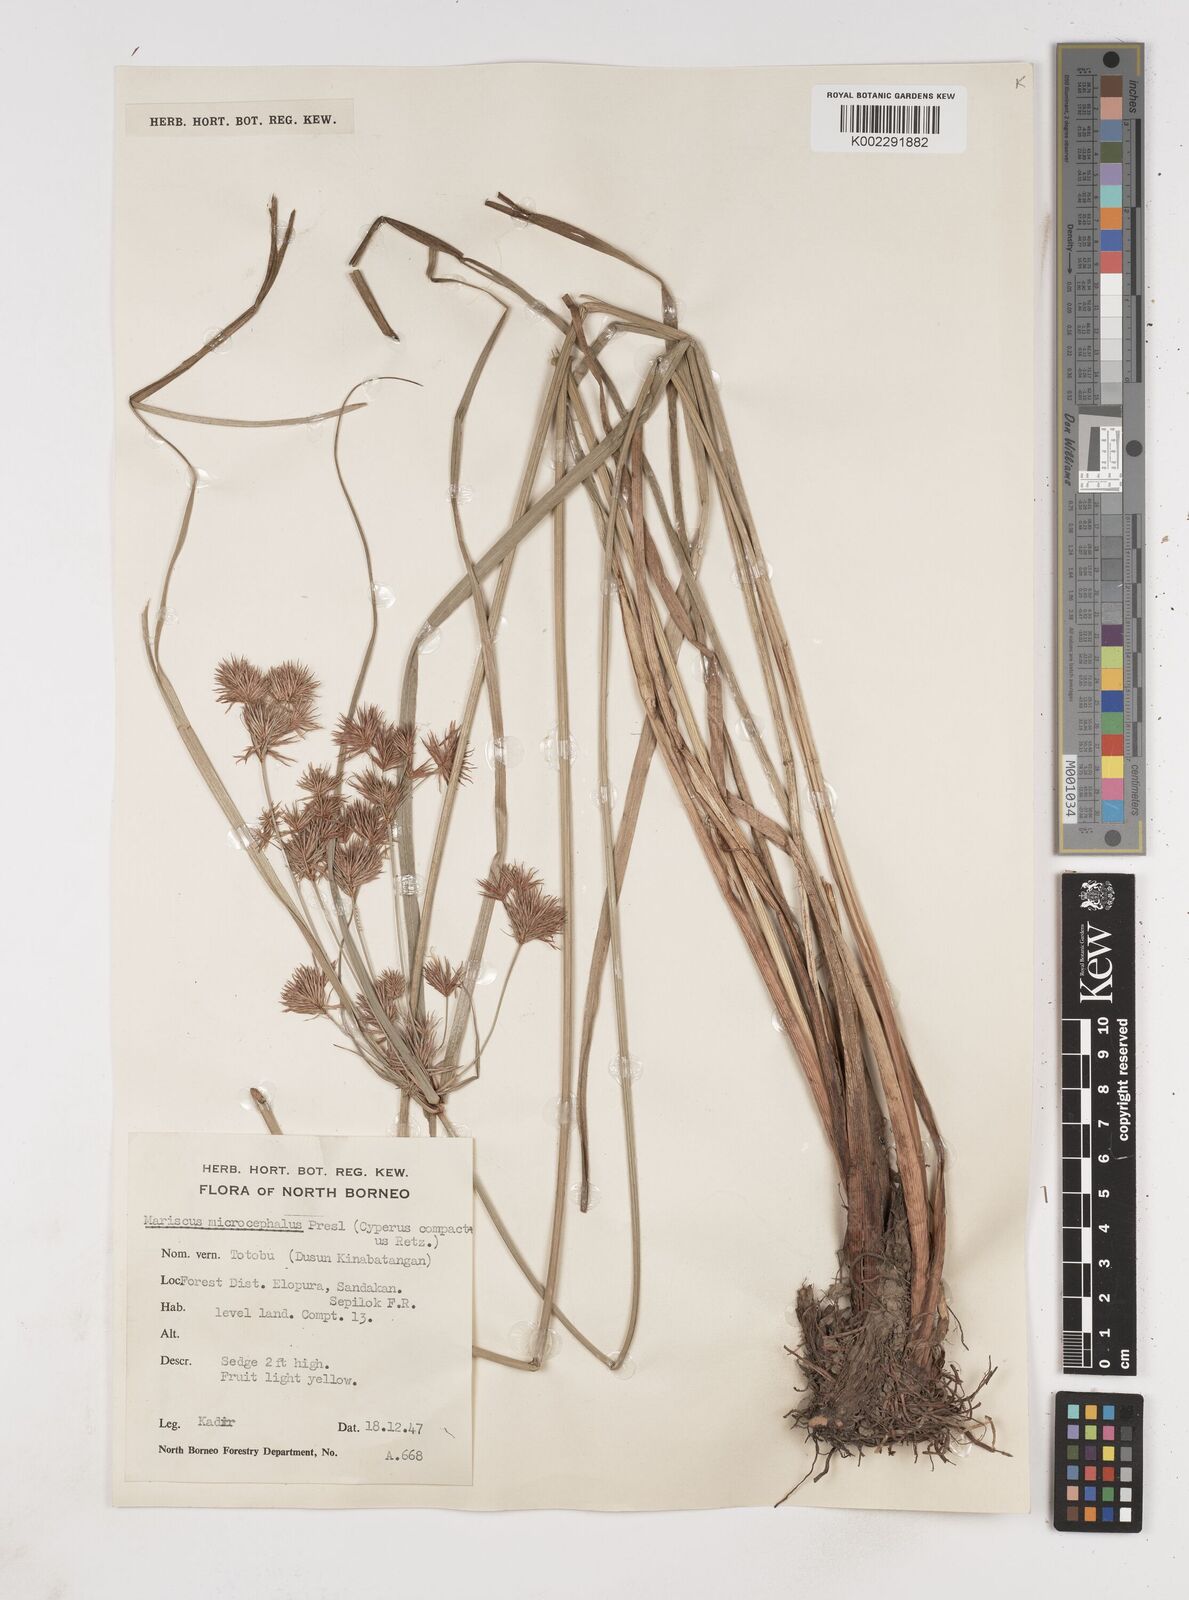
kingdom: Plantae
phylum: Tracheophyta
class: Liliopsida
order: Poales
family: Cyperaceae
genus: Cyperus
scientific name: Cyperus compactus
